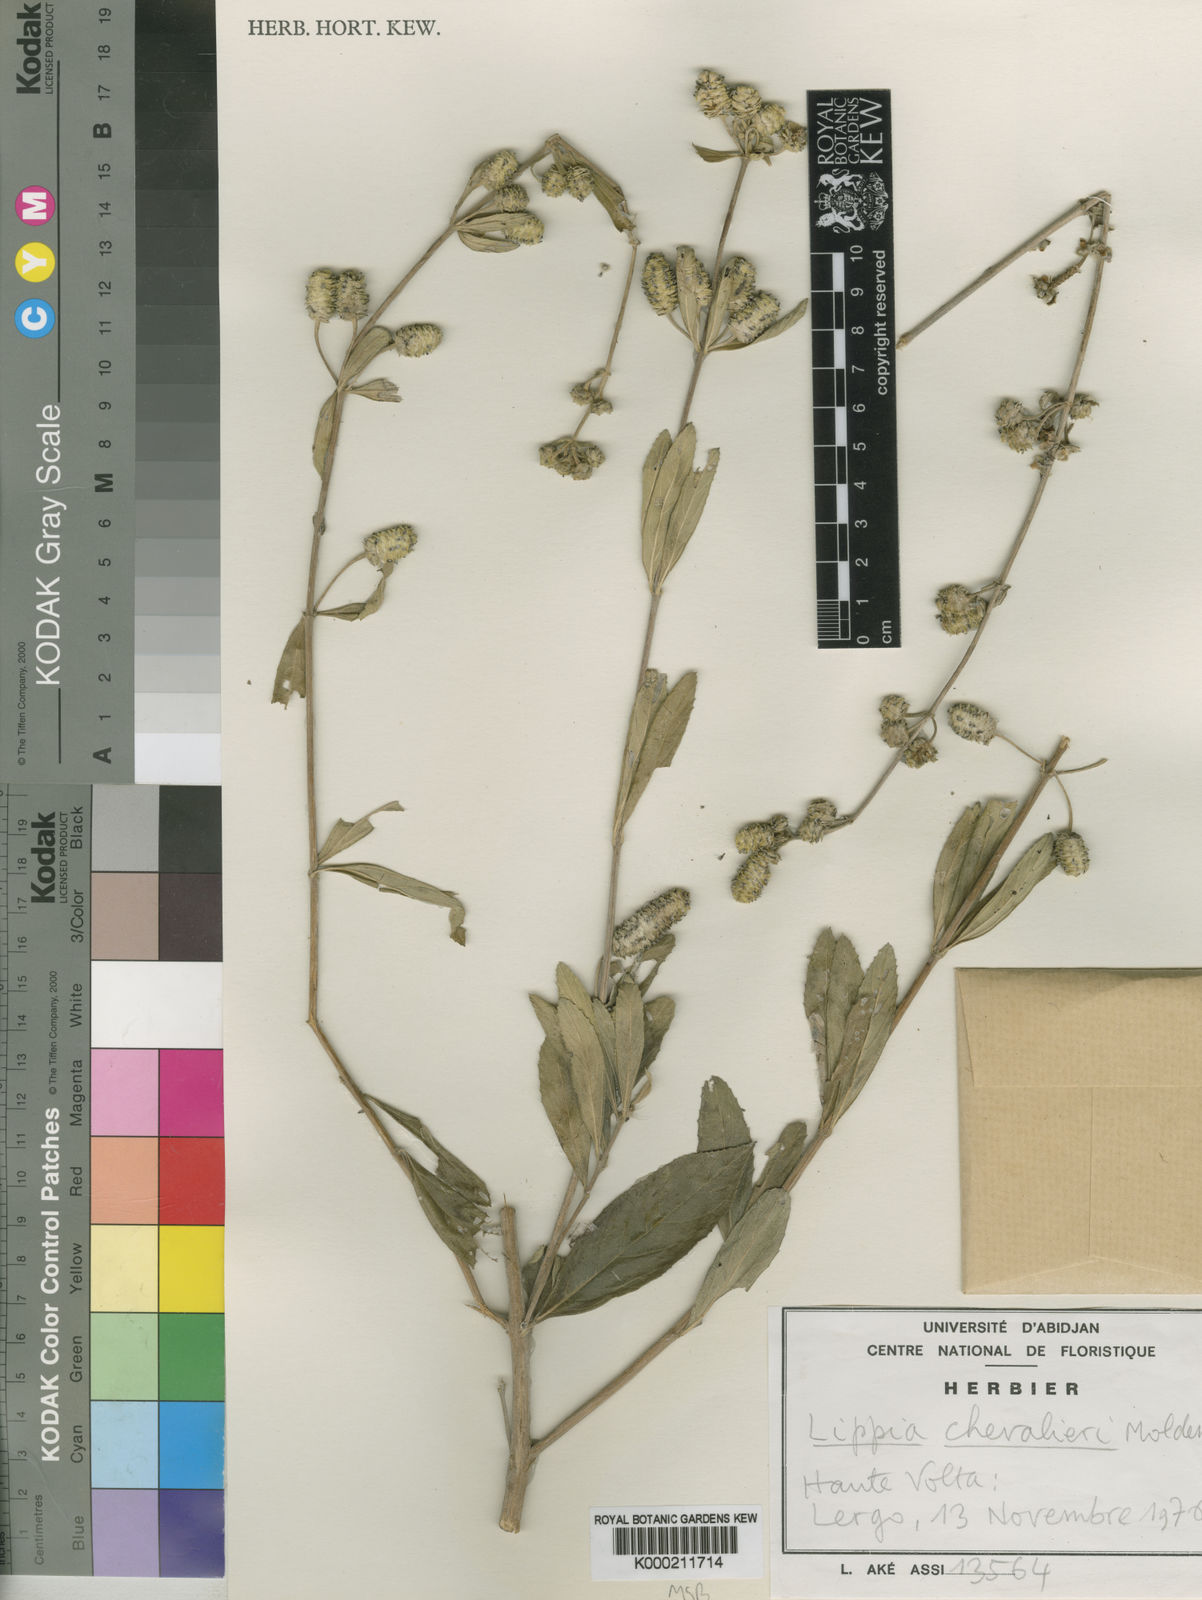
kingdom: Plantae
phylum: Tracheophyta
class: Magnoliopsida
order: Lamiales
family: Verbenaceae
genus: Lippia
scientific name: Lippia chevalieri
